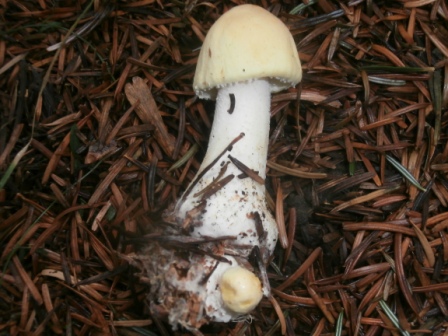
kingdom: Fungi
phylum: Basidiomycota
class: Agaricomycetes
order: Agaricales
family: Agaricaceae
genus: Agaricus
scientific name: Agaricus sylvicola
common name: gulhvid champignon
